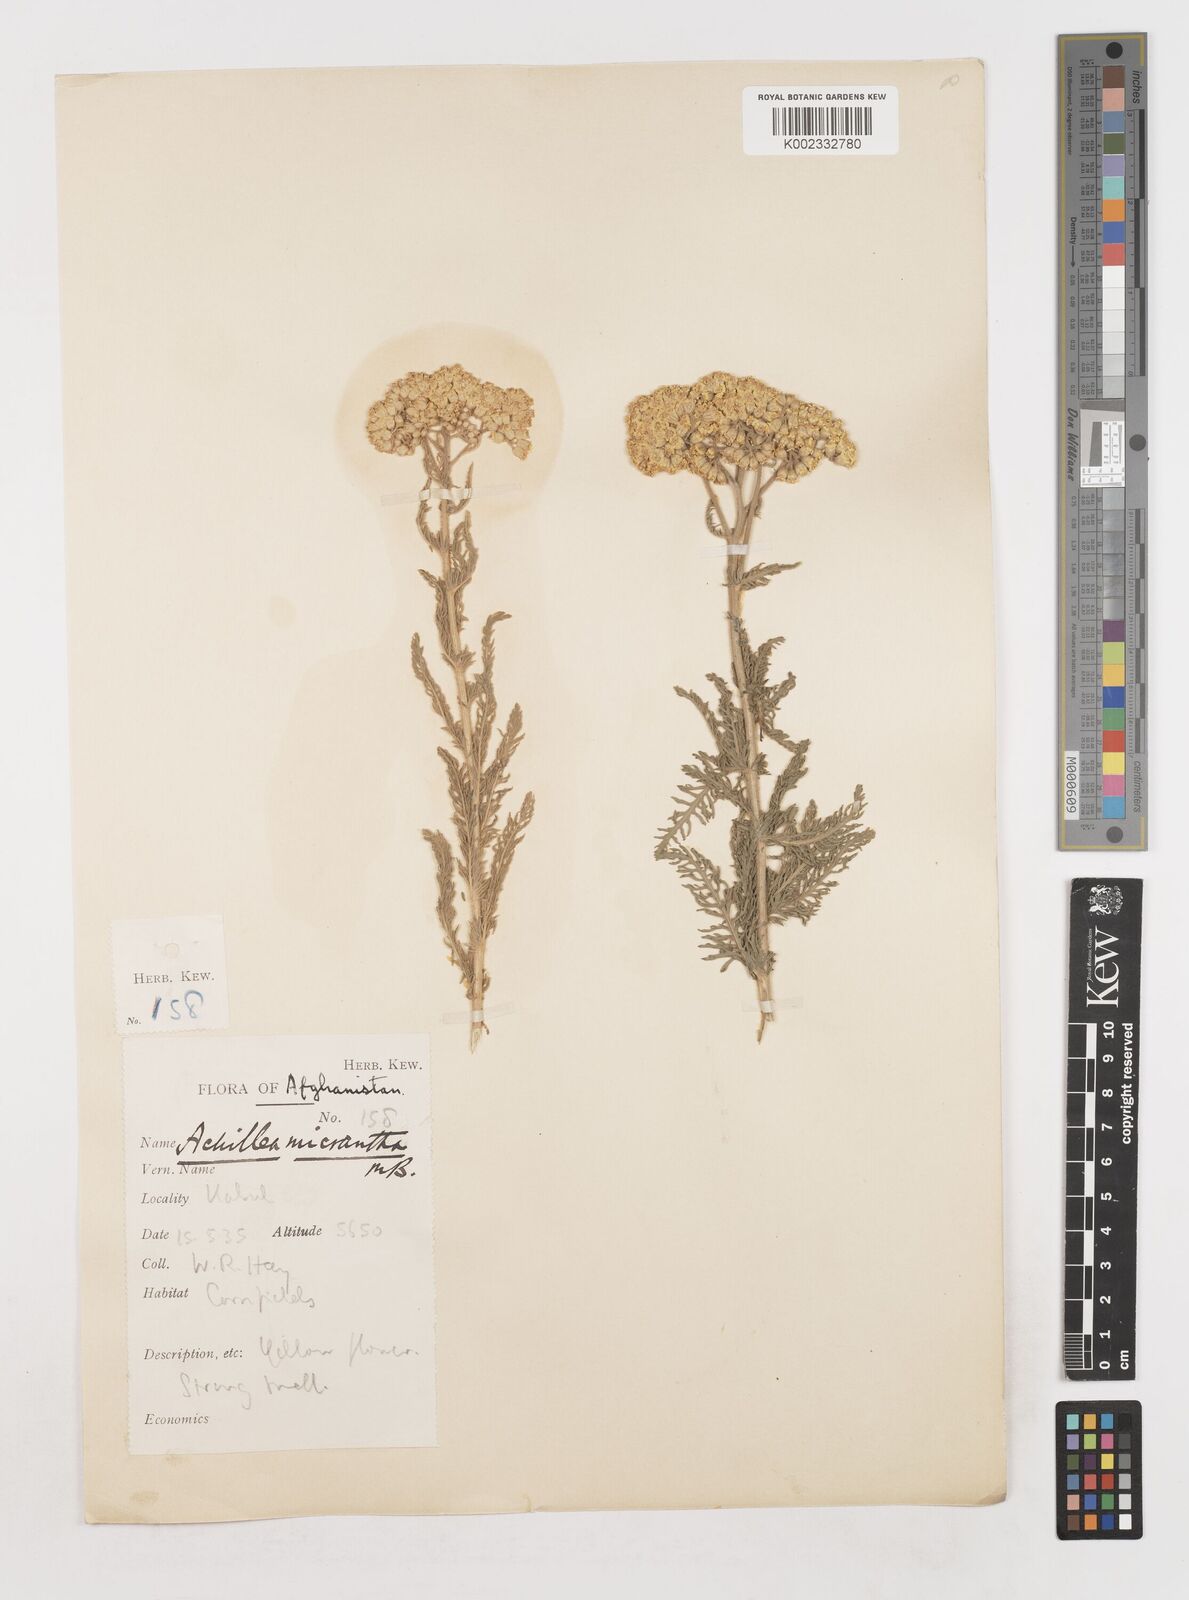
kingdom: Plantae
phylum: Tracheophyta
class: Magnoliopsida
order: Asterales
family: Asteraceae
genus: Achillea
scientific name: Achillea arabica
